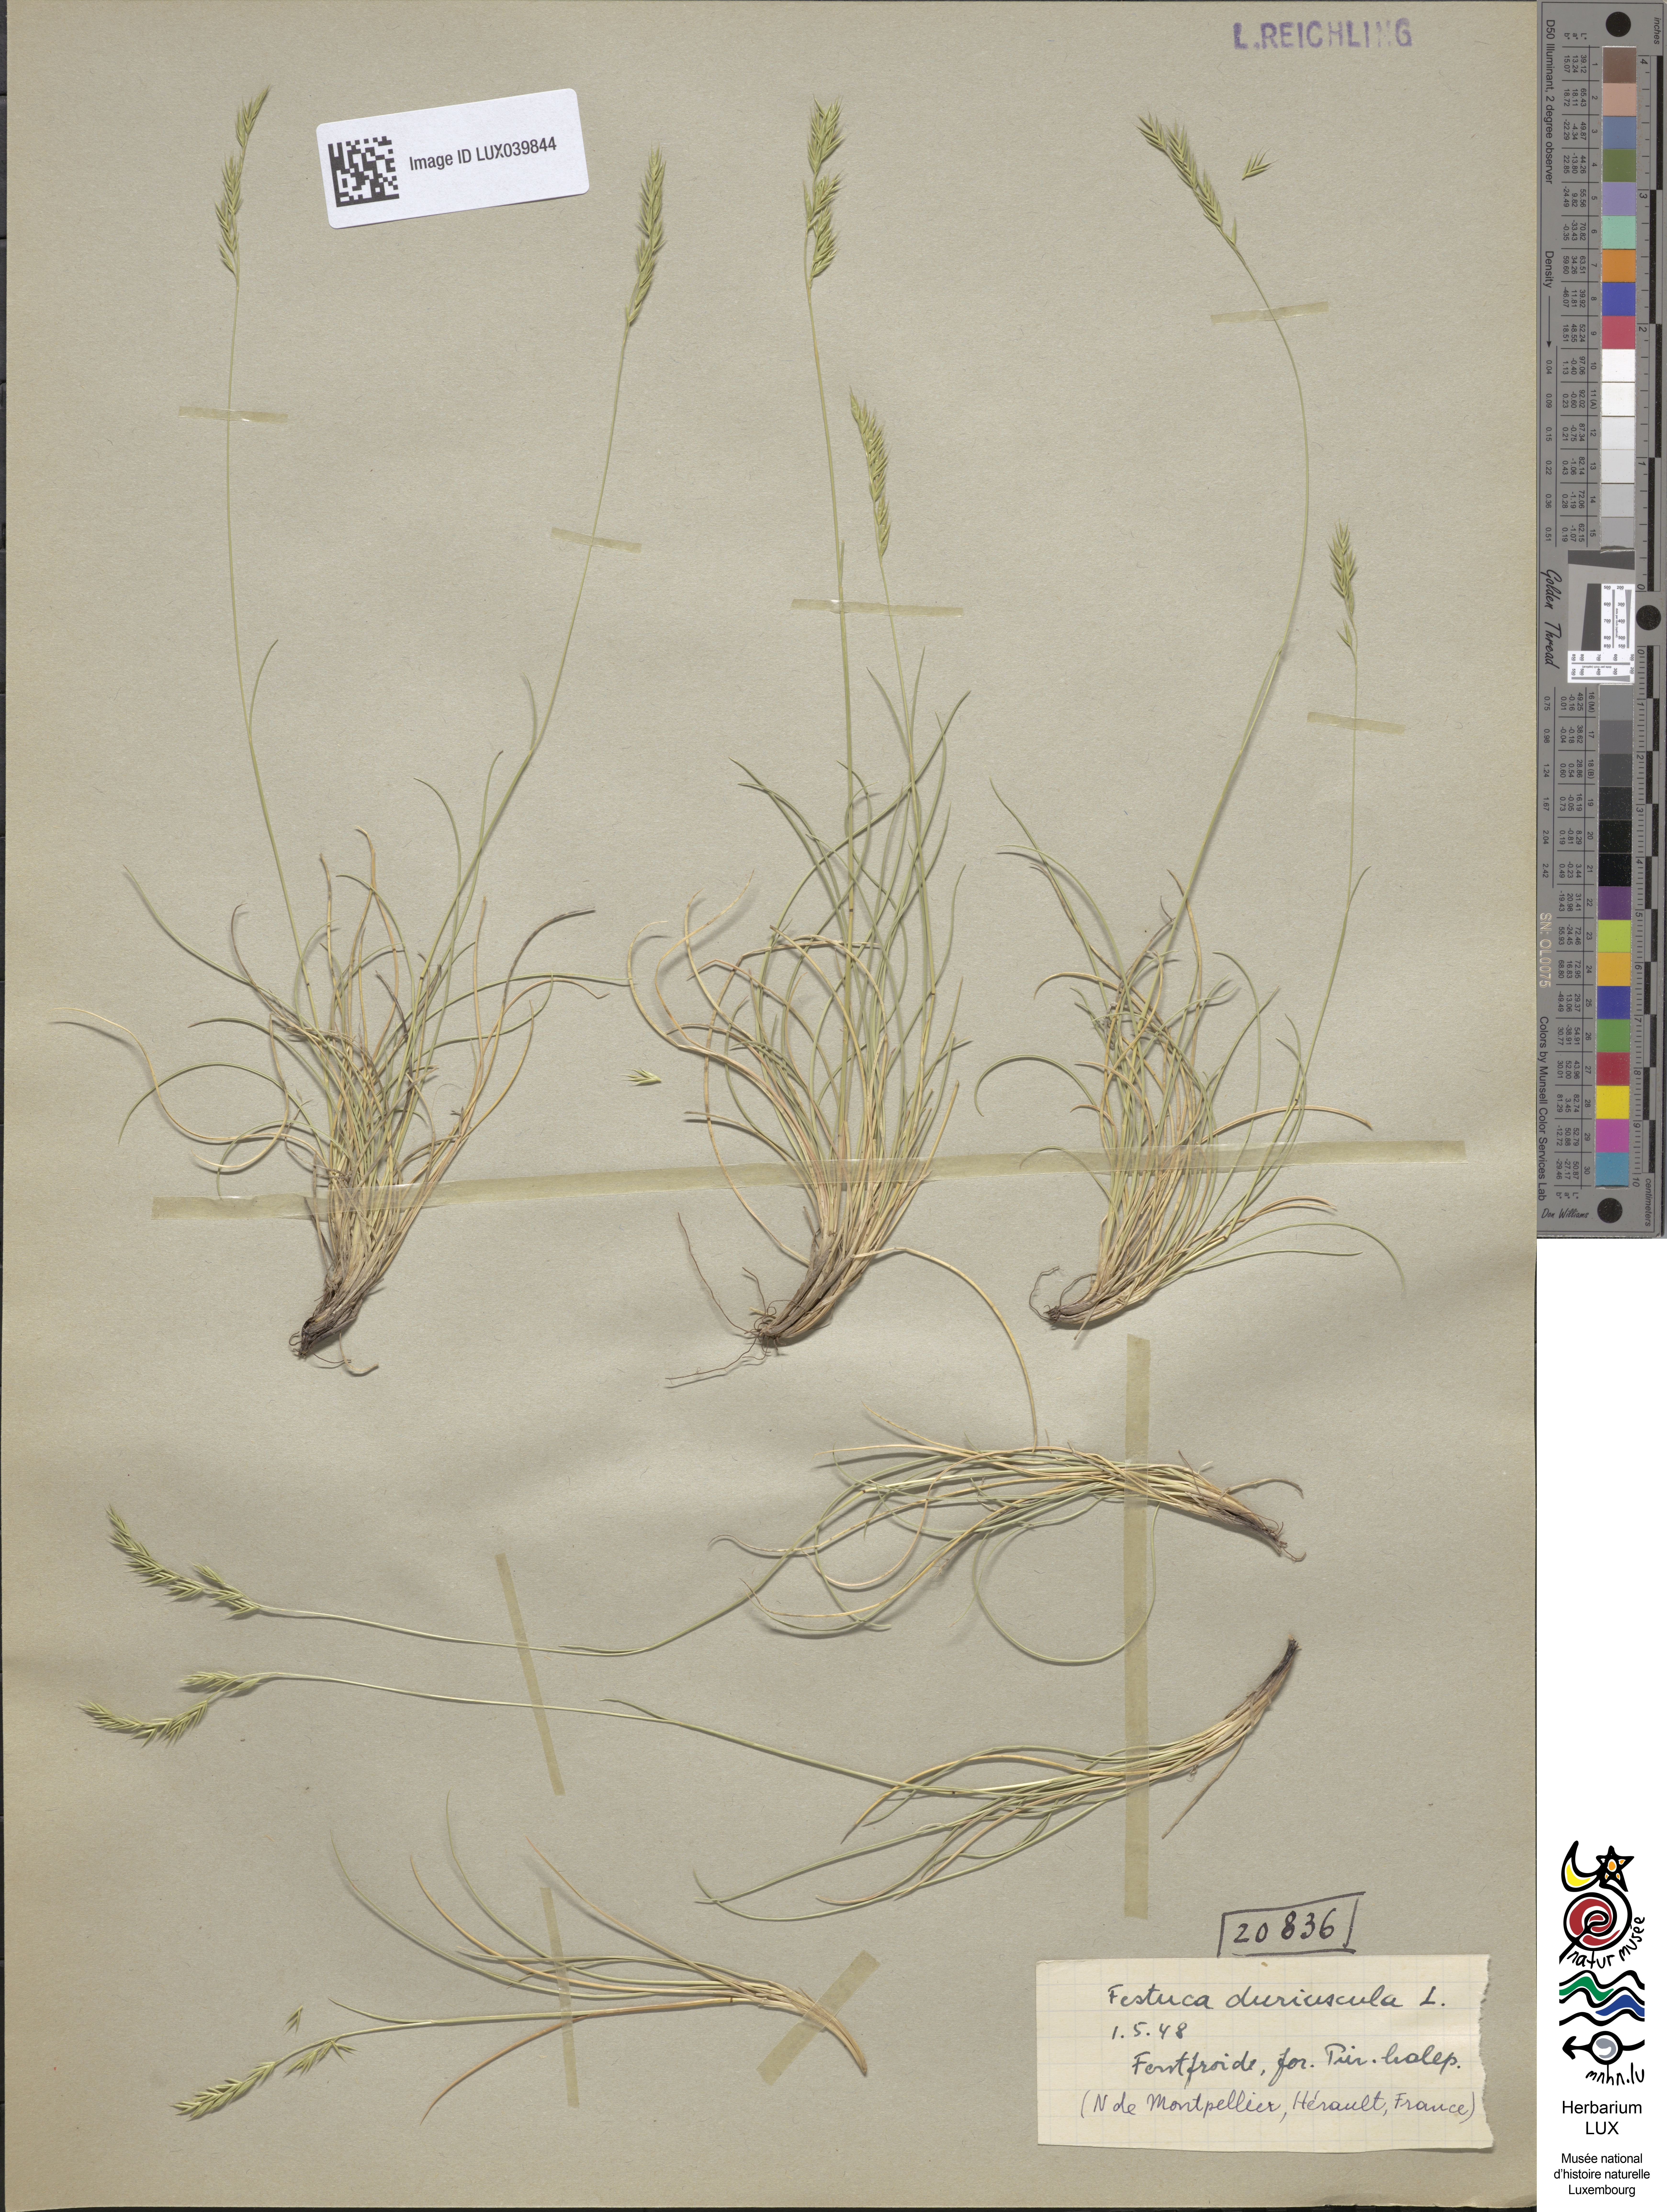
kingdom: Plantae
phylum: Tracheophyta
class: Liliopsida
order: Poales
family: Poaceae
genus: Festuca
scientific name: Festuca rubra
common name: Red fescue
